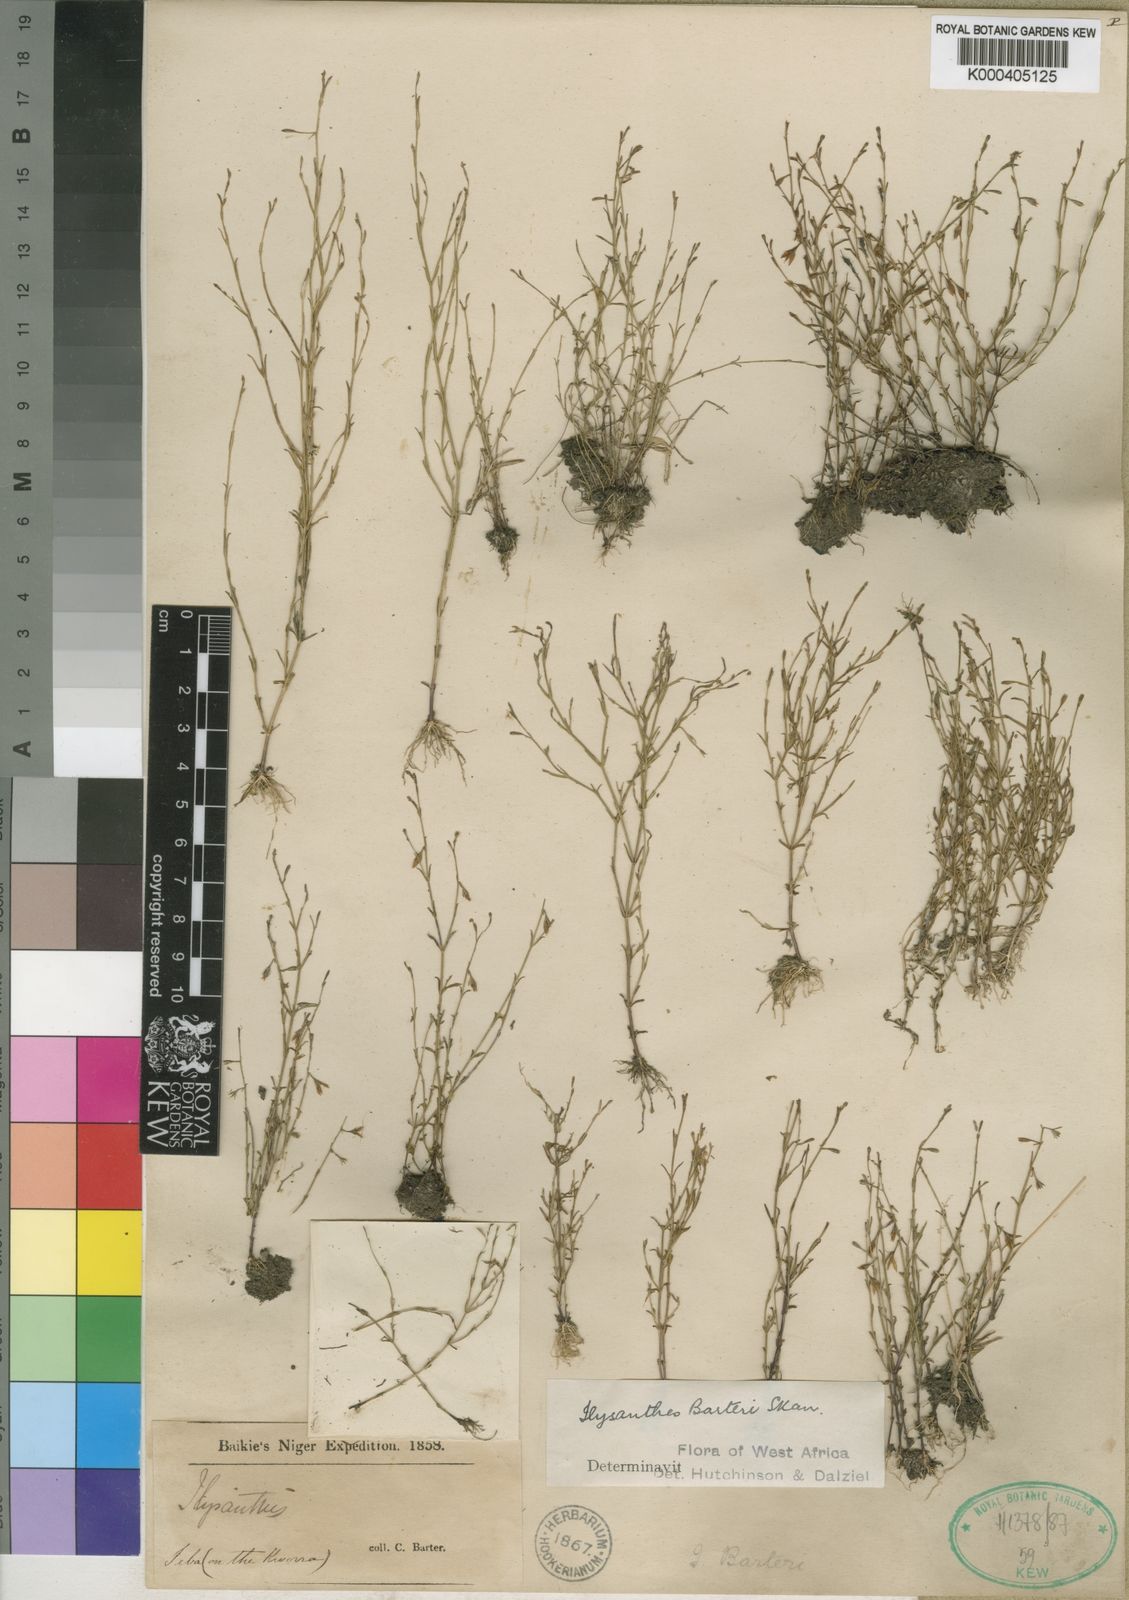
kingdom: Plantae
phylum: Tracheophyta
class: Magnoliopsida
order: Lamiales
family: Linderniaceae
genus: Linderniella
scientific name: Linderniella trichotoma
